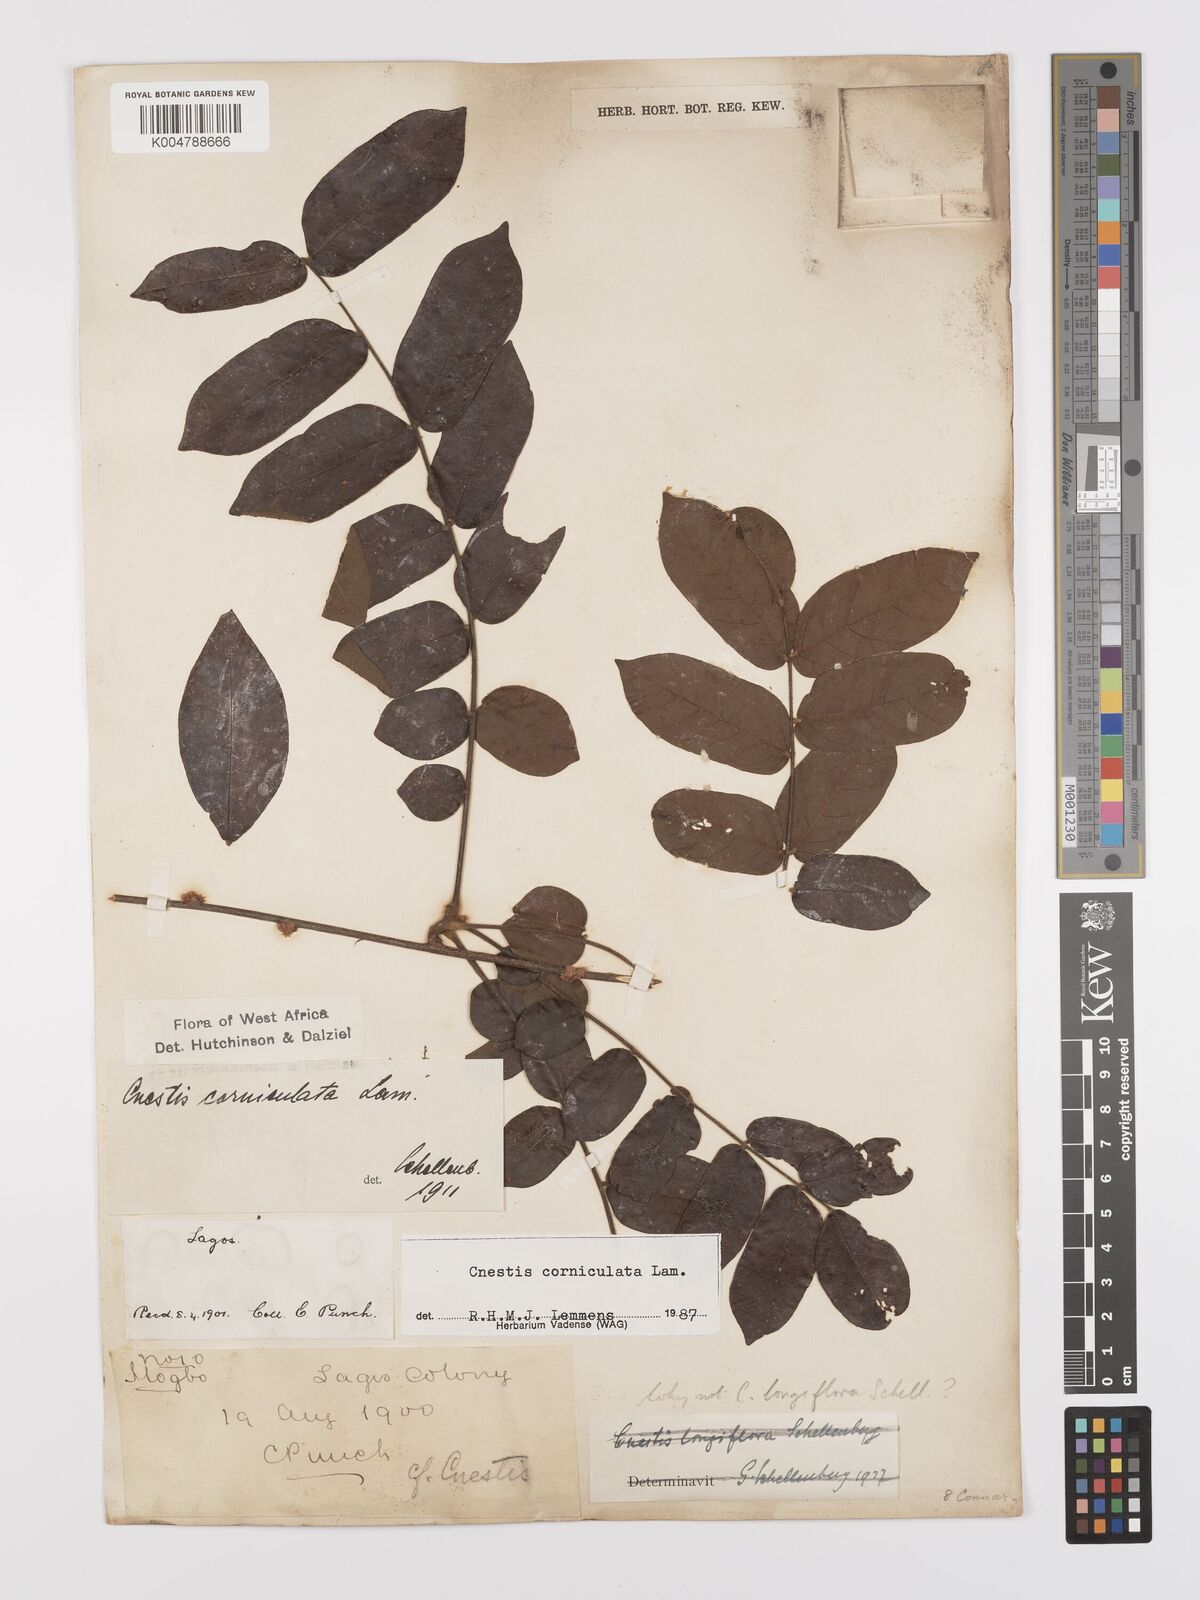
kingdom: Plantae
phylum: Tracheophyta
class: Magnoliopsida
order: Oxalidales
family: Connaraceae
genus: Cnestis
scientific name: Cnestis corniculata
